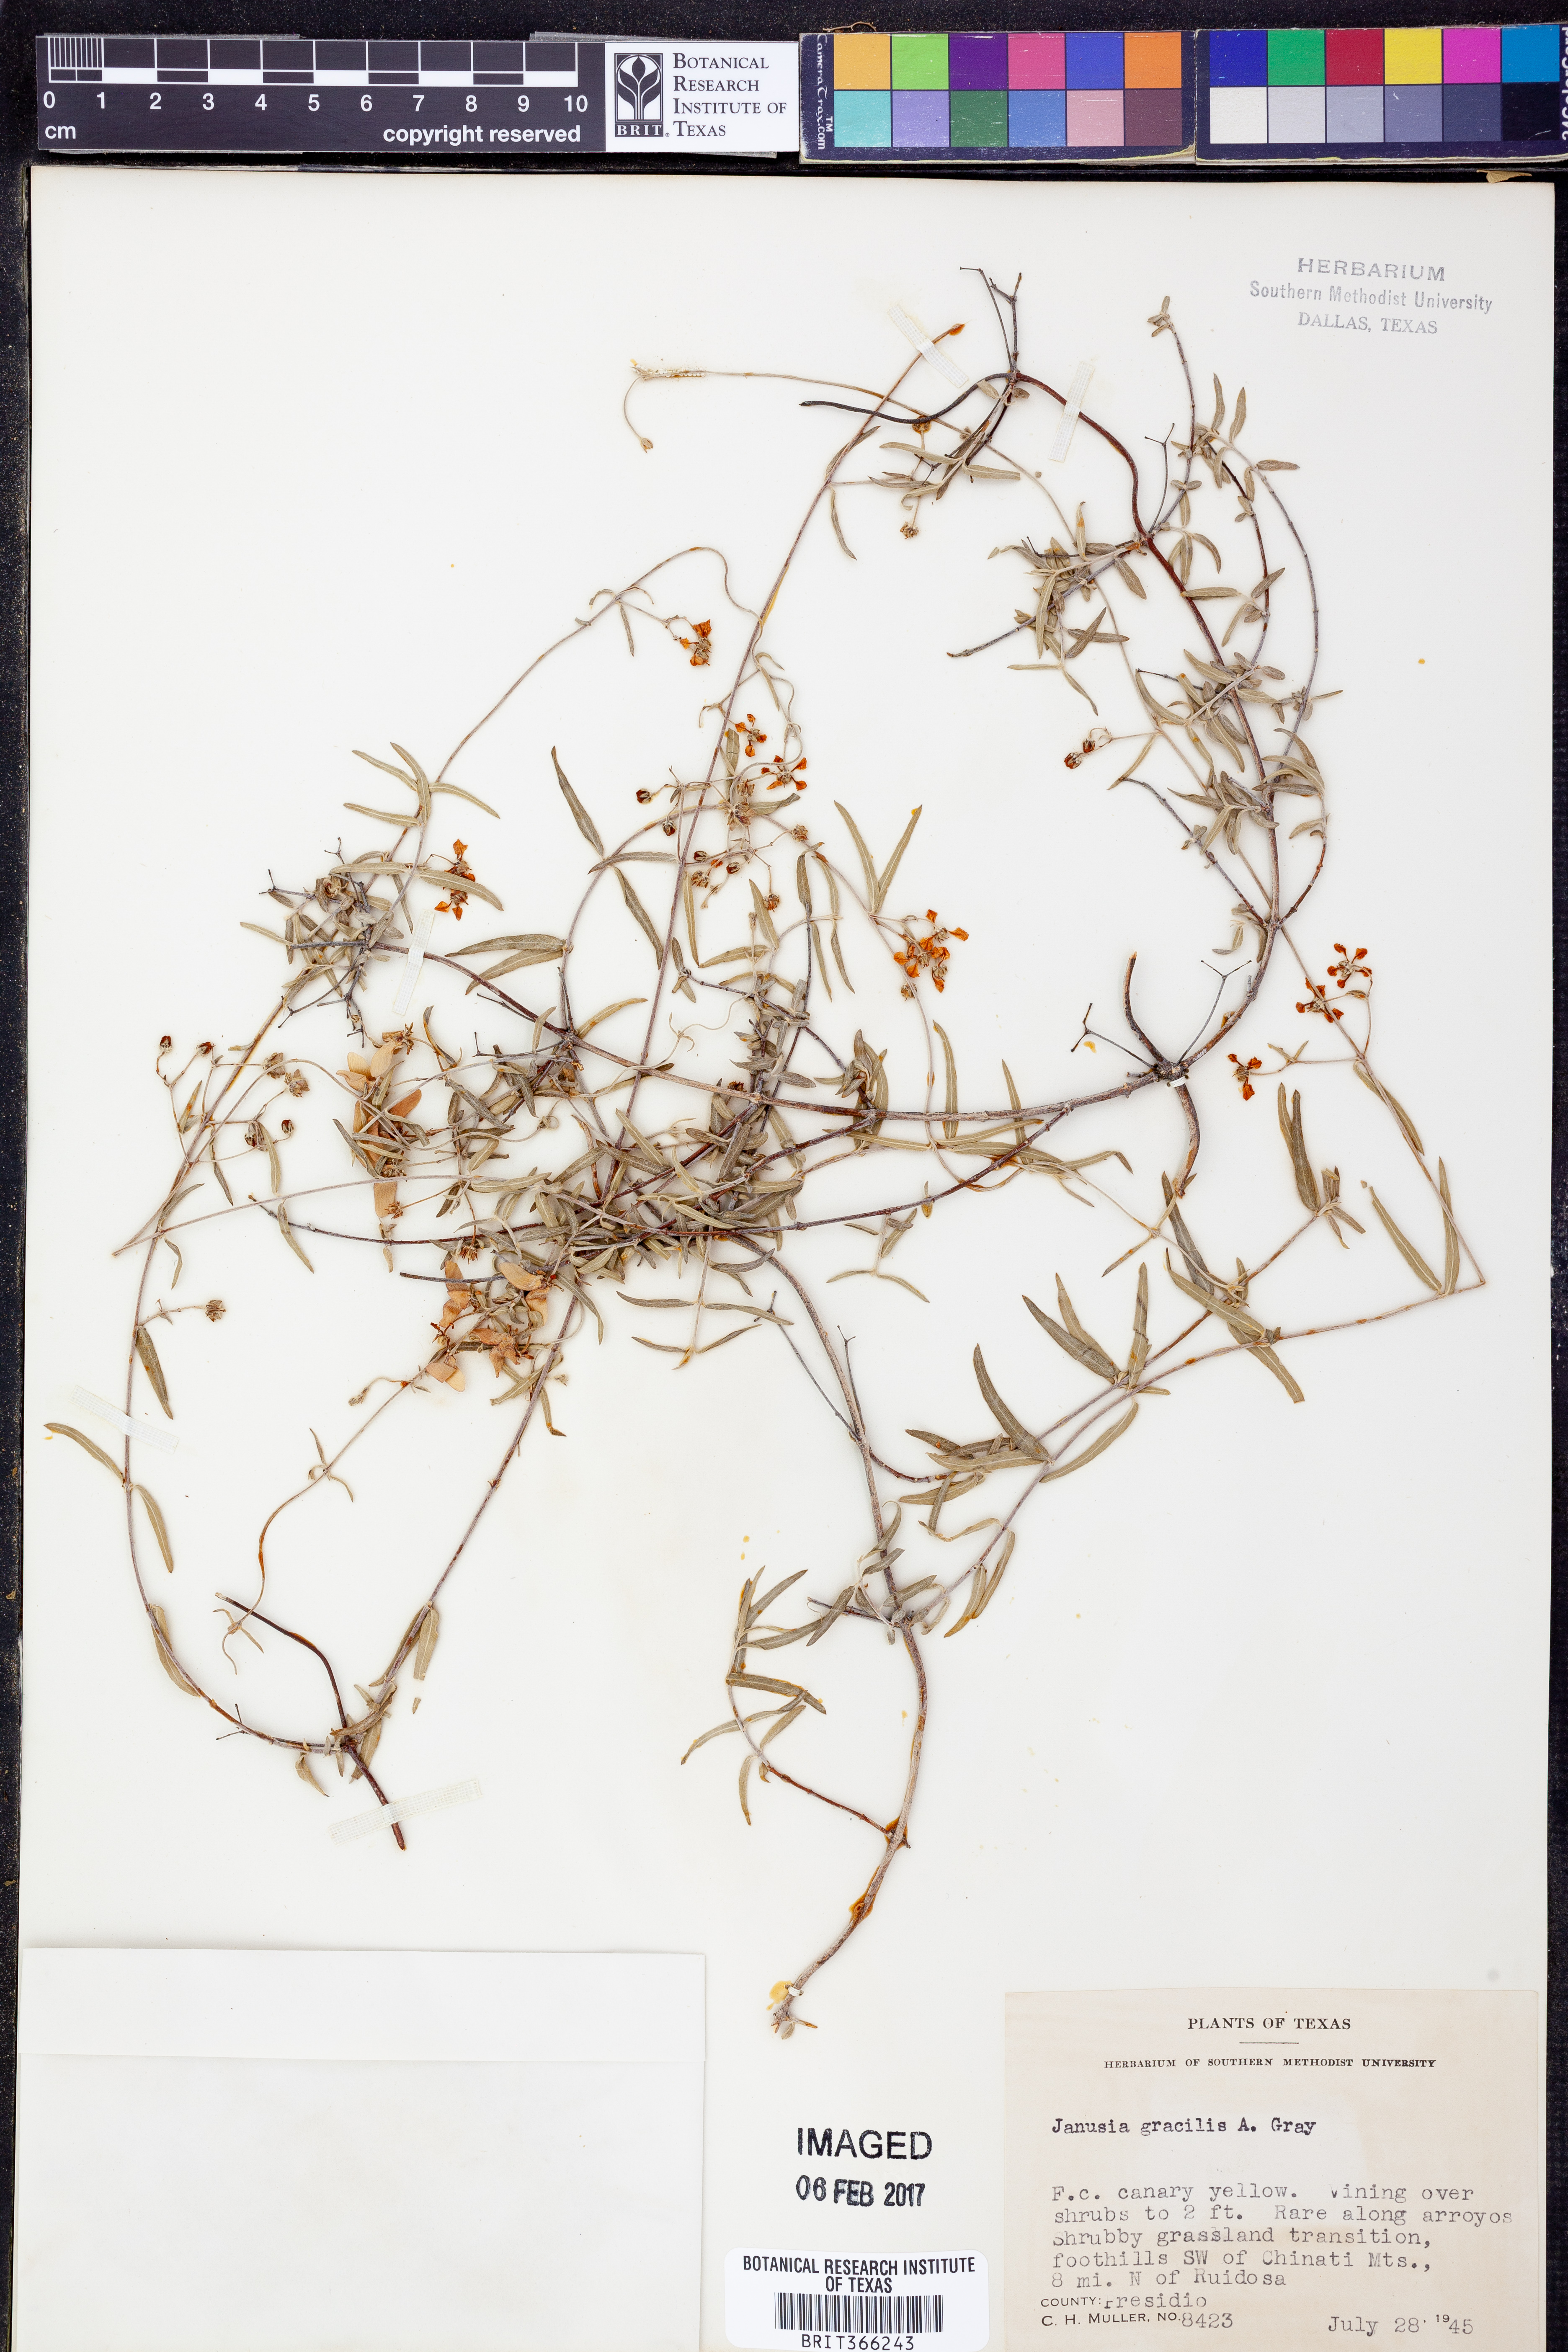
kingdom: Plantae
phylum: Tracheophyta
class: Magnoliopsida
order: Malpighiales
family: Malpighiaceae
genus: Cottsia
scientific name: Cottsia gracilis
